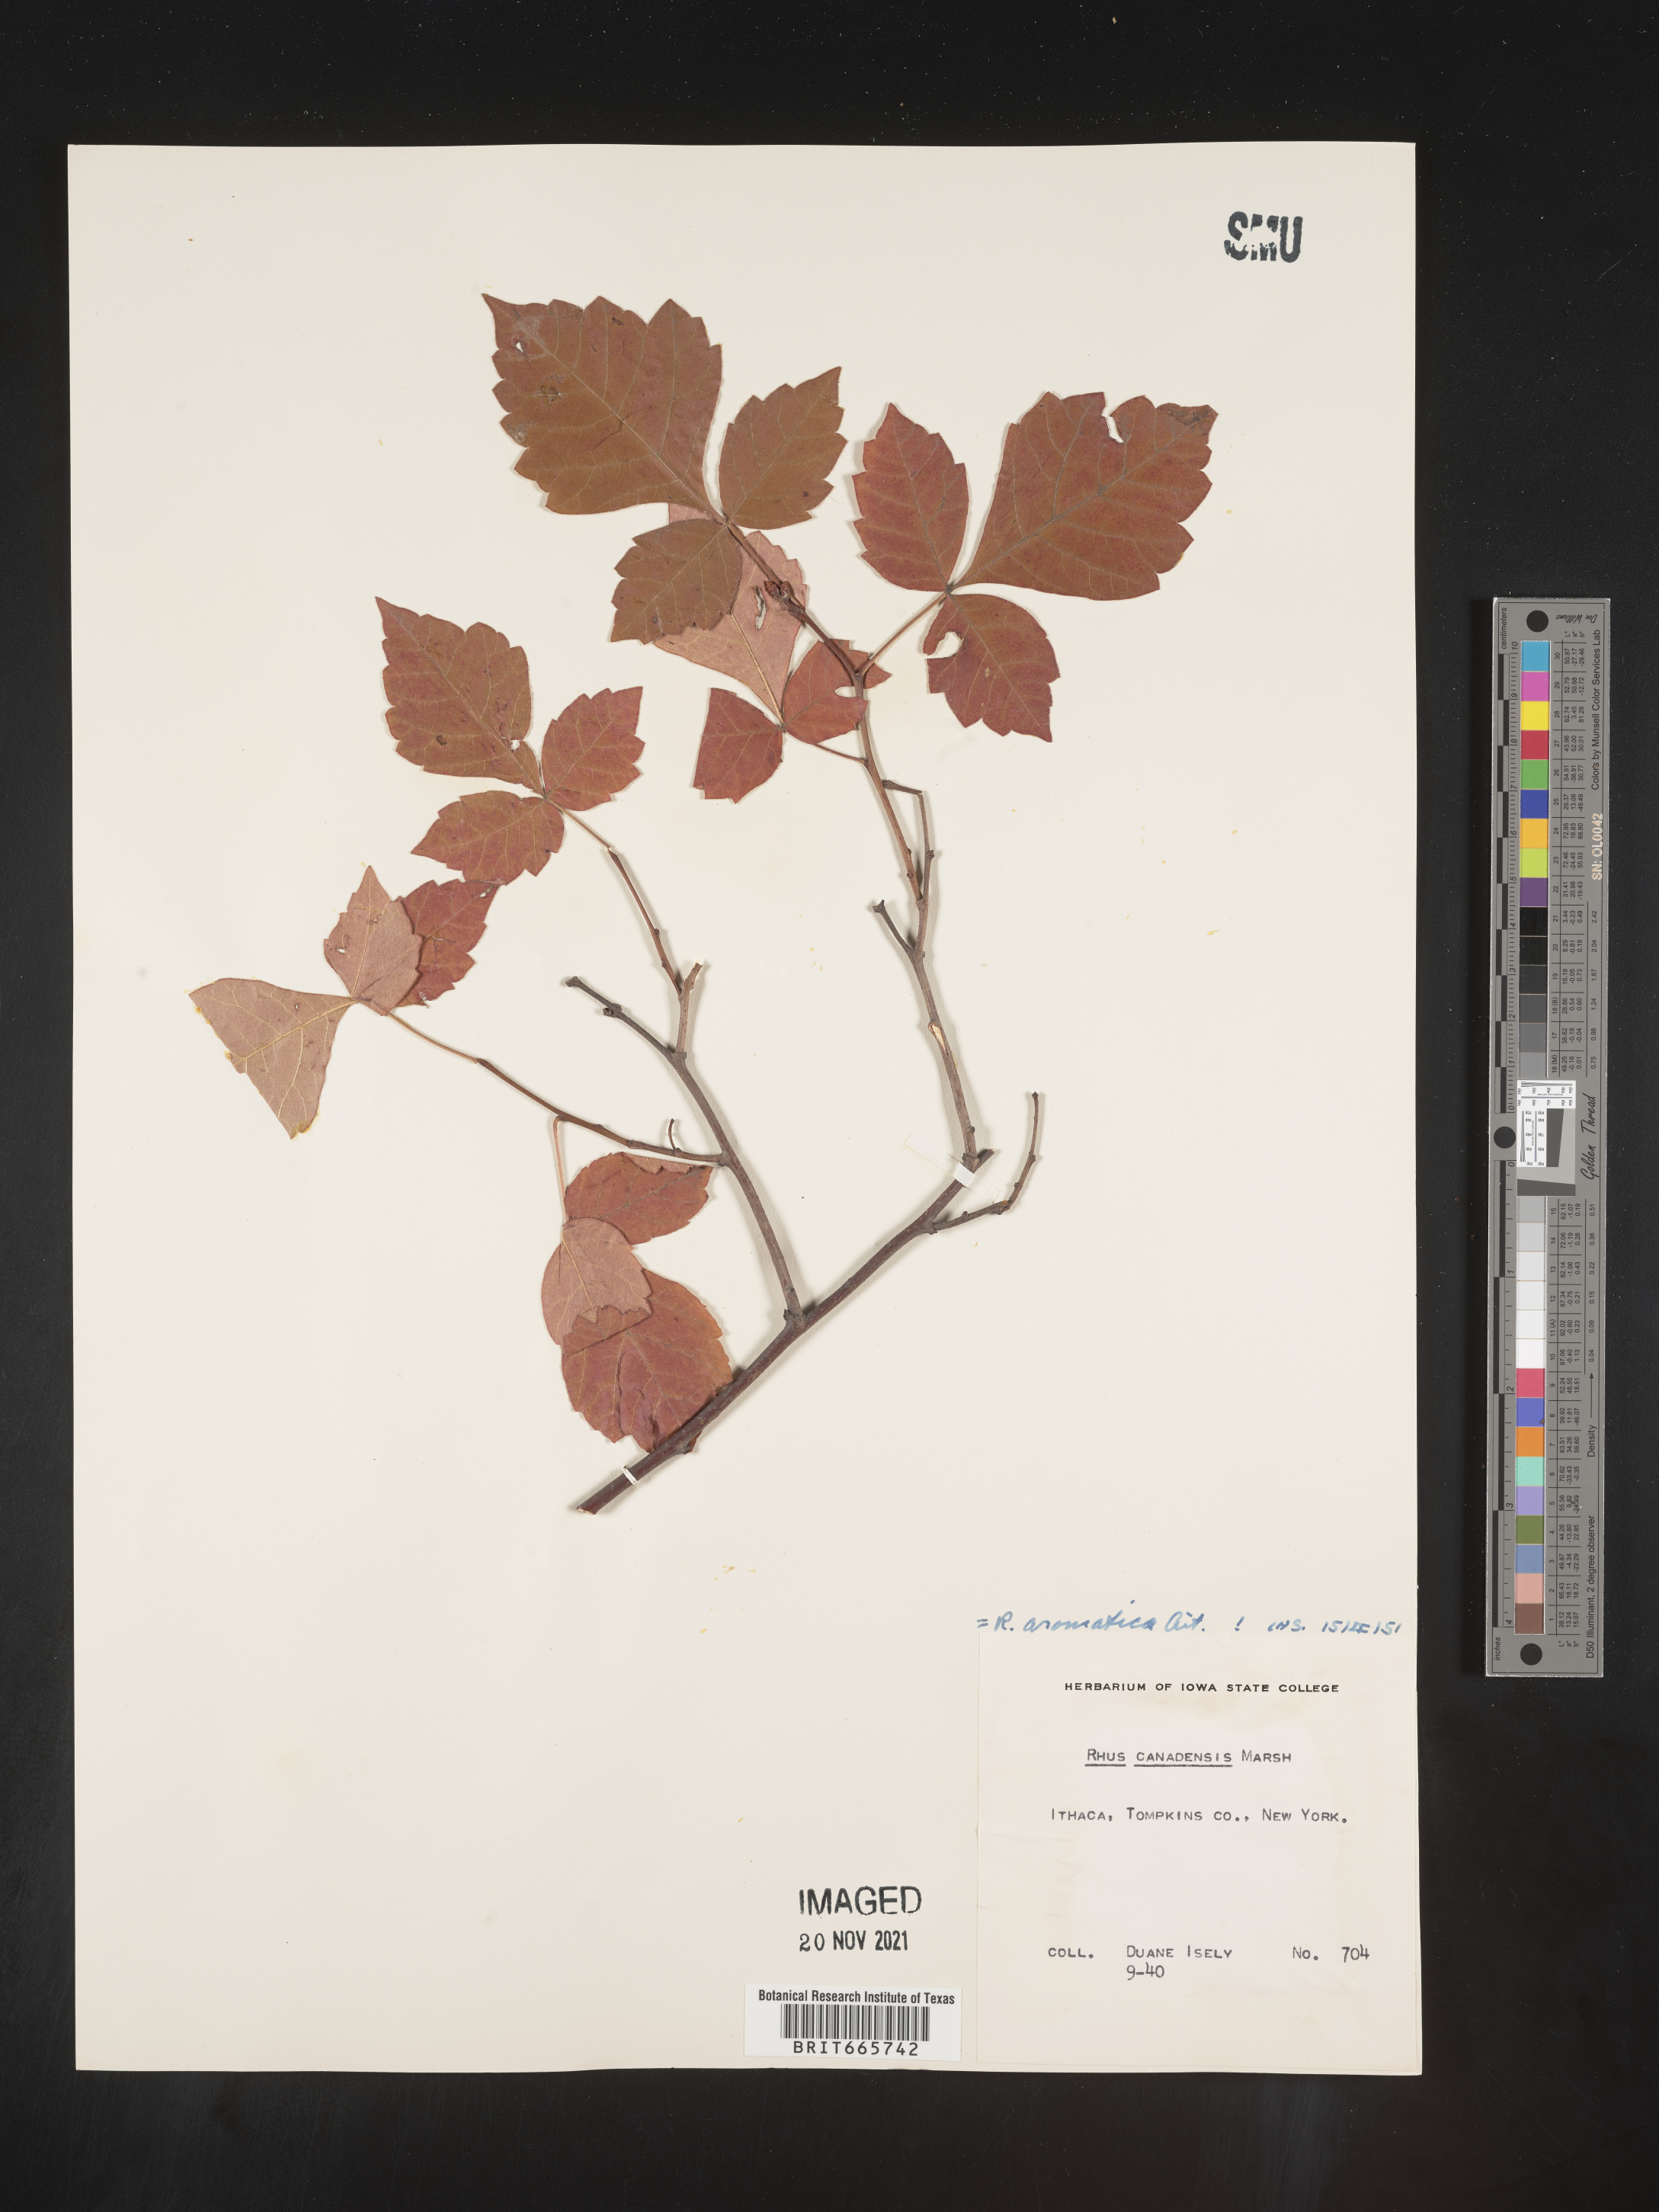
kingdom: Plantae
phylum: Tracheophyta
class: Magnoliopsida
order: Sapindales
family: Anacardiaceae
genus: Rhus
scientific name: Rhus aromatica
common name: Aromatic sumac
